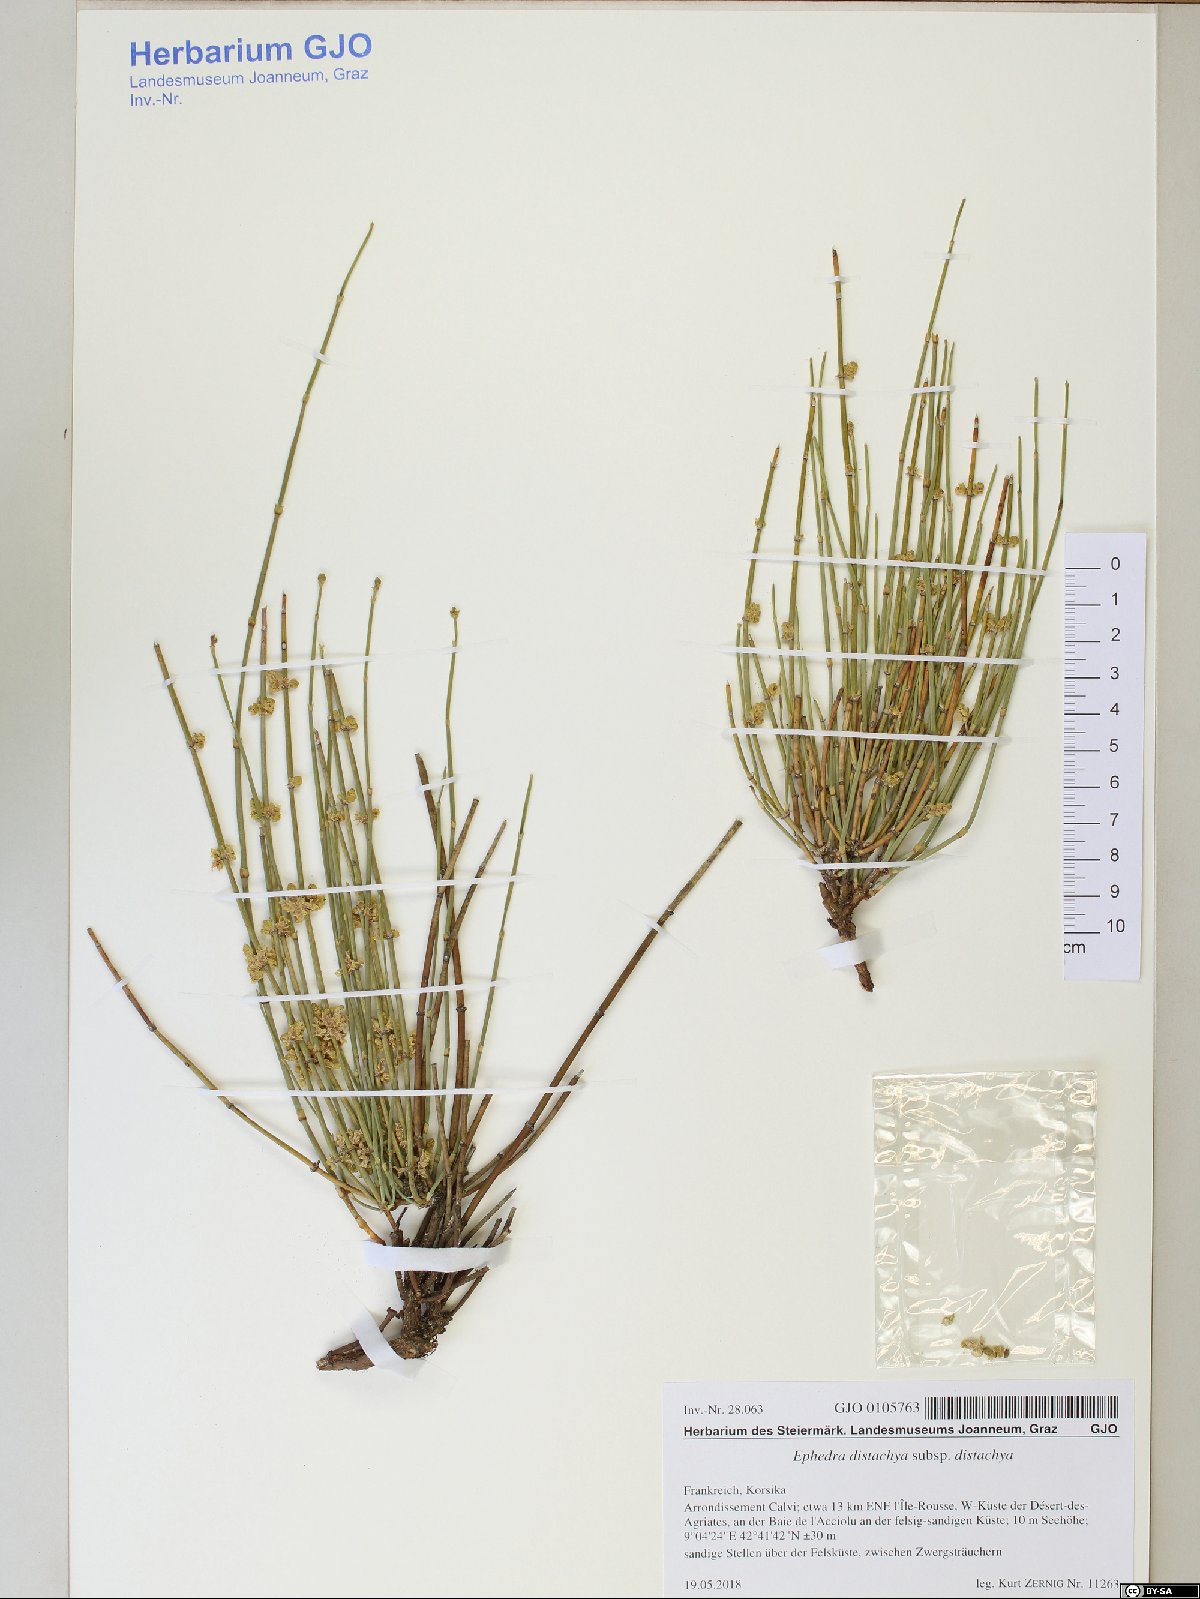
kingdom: Plantae
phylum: Tracheophyta
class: Gnetopsida
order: Ephedrales
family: Ephedraceae
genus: Ephedra
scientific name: Ephedra distachya
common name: Sea grape
